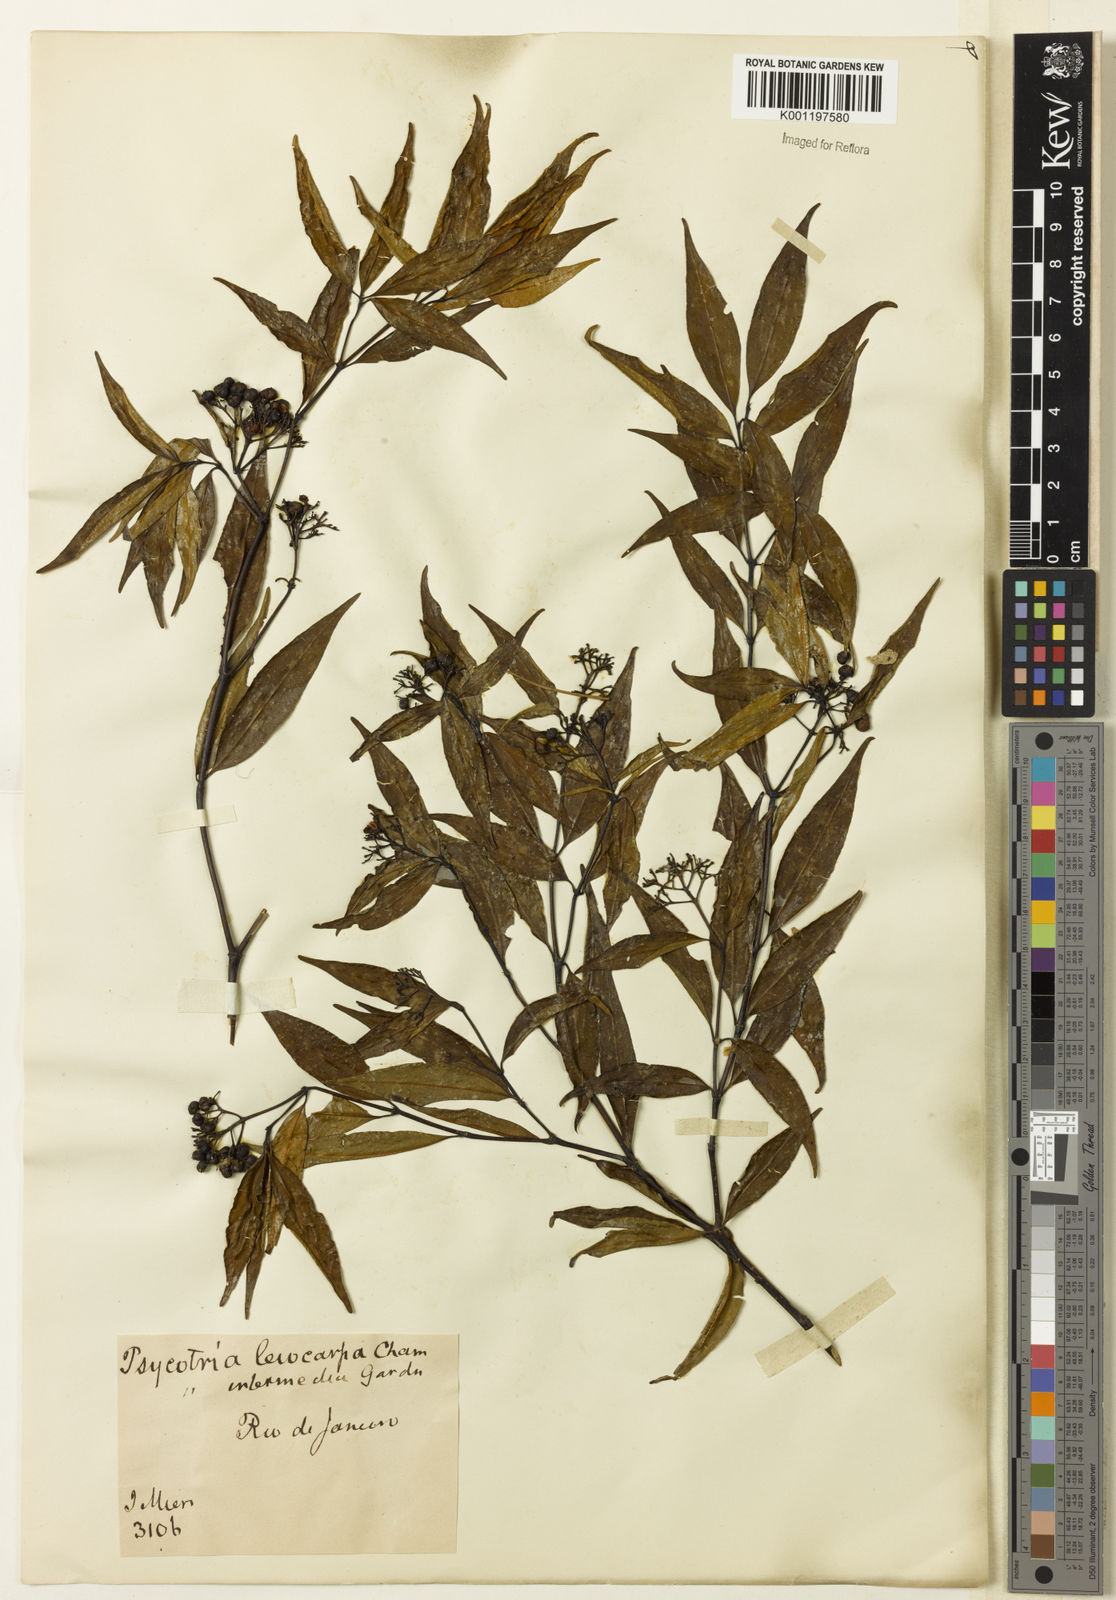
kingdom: Plantae
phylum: Tracheophyta
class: Magnoliopsida
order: Gentianales
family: Rubiaceae
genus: Psychotria
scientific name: Psychotria leiocarpa
